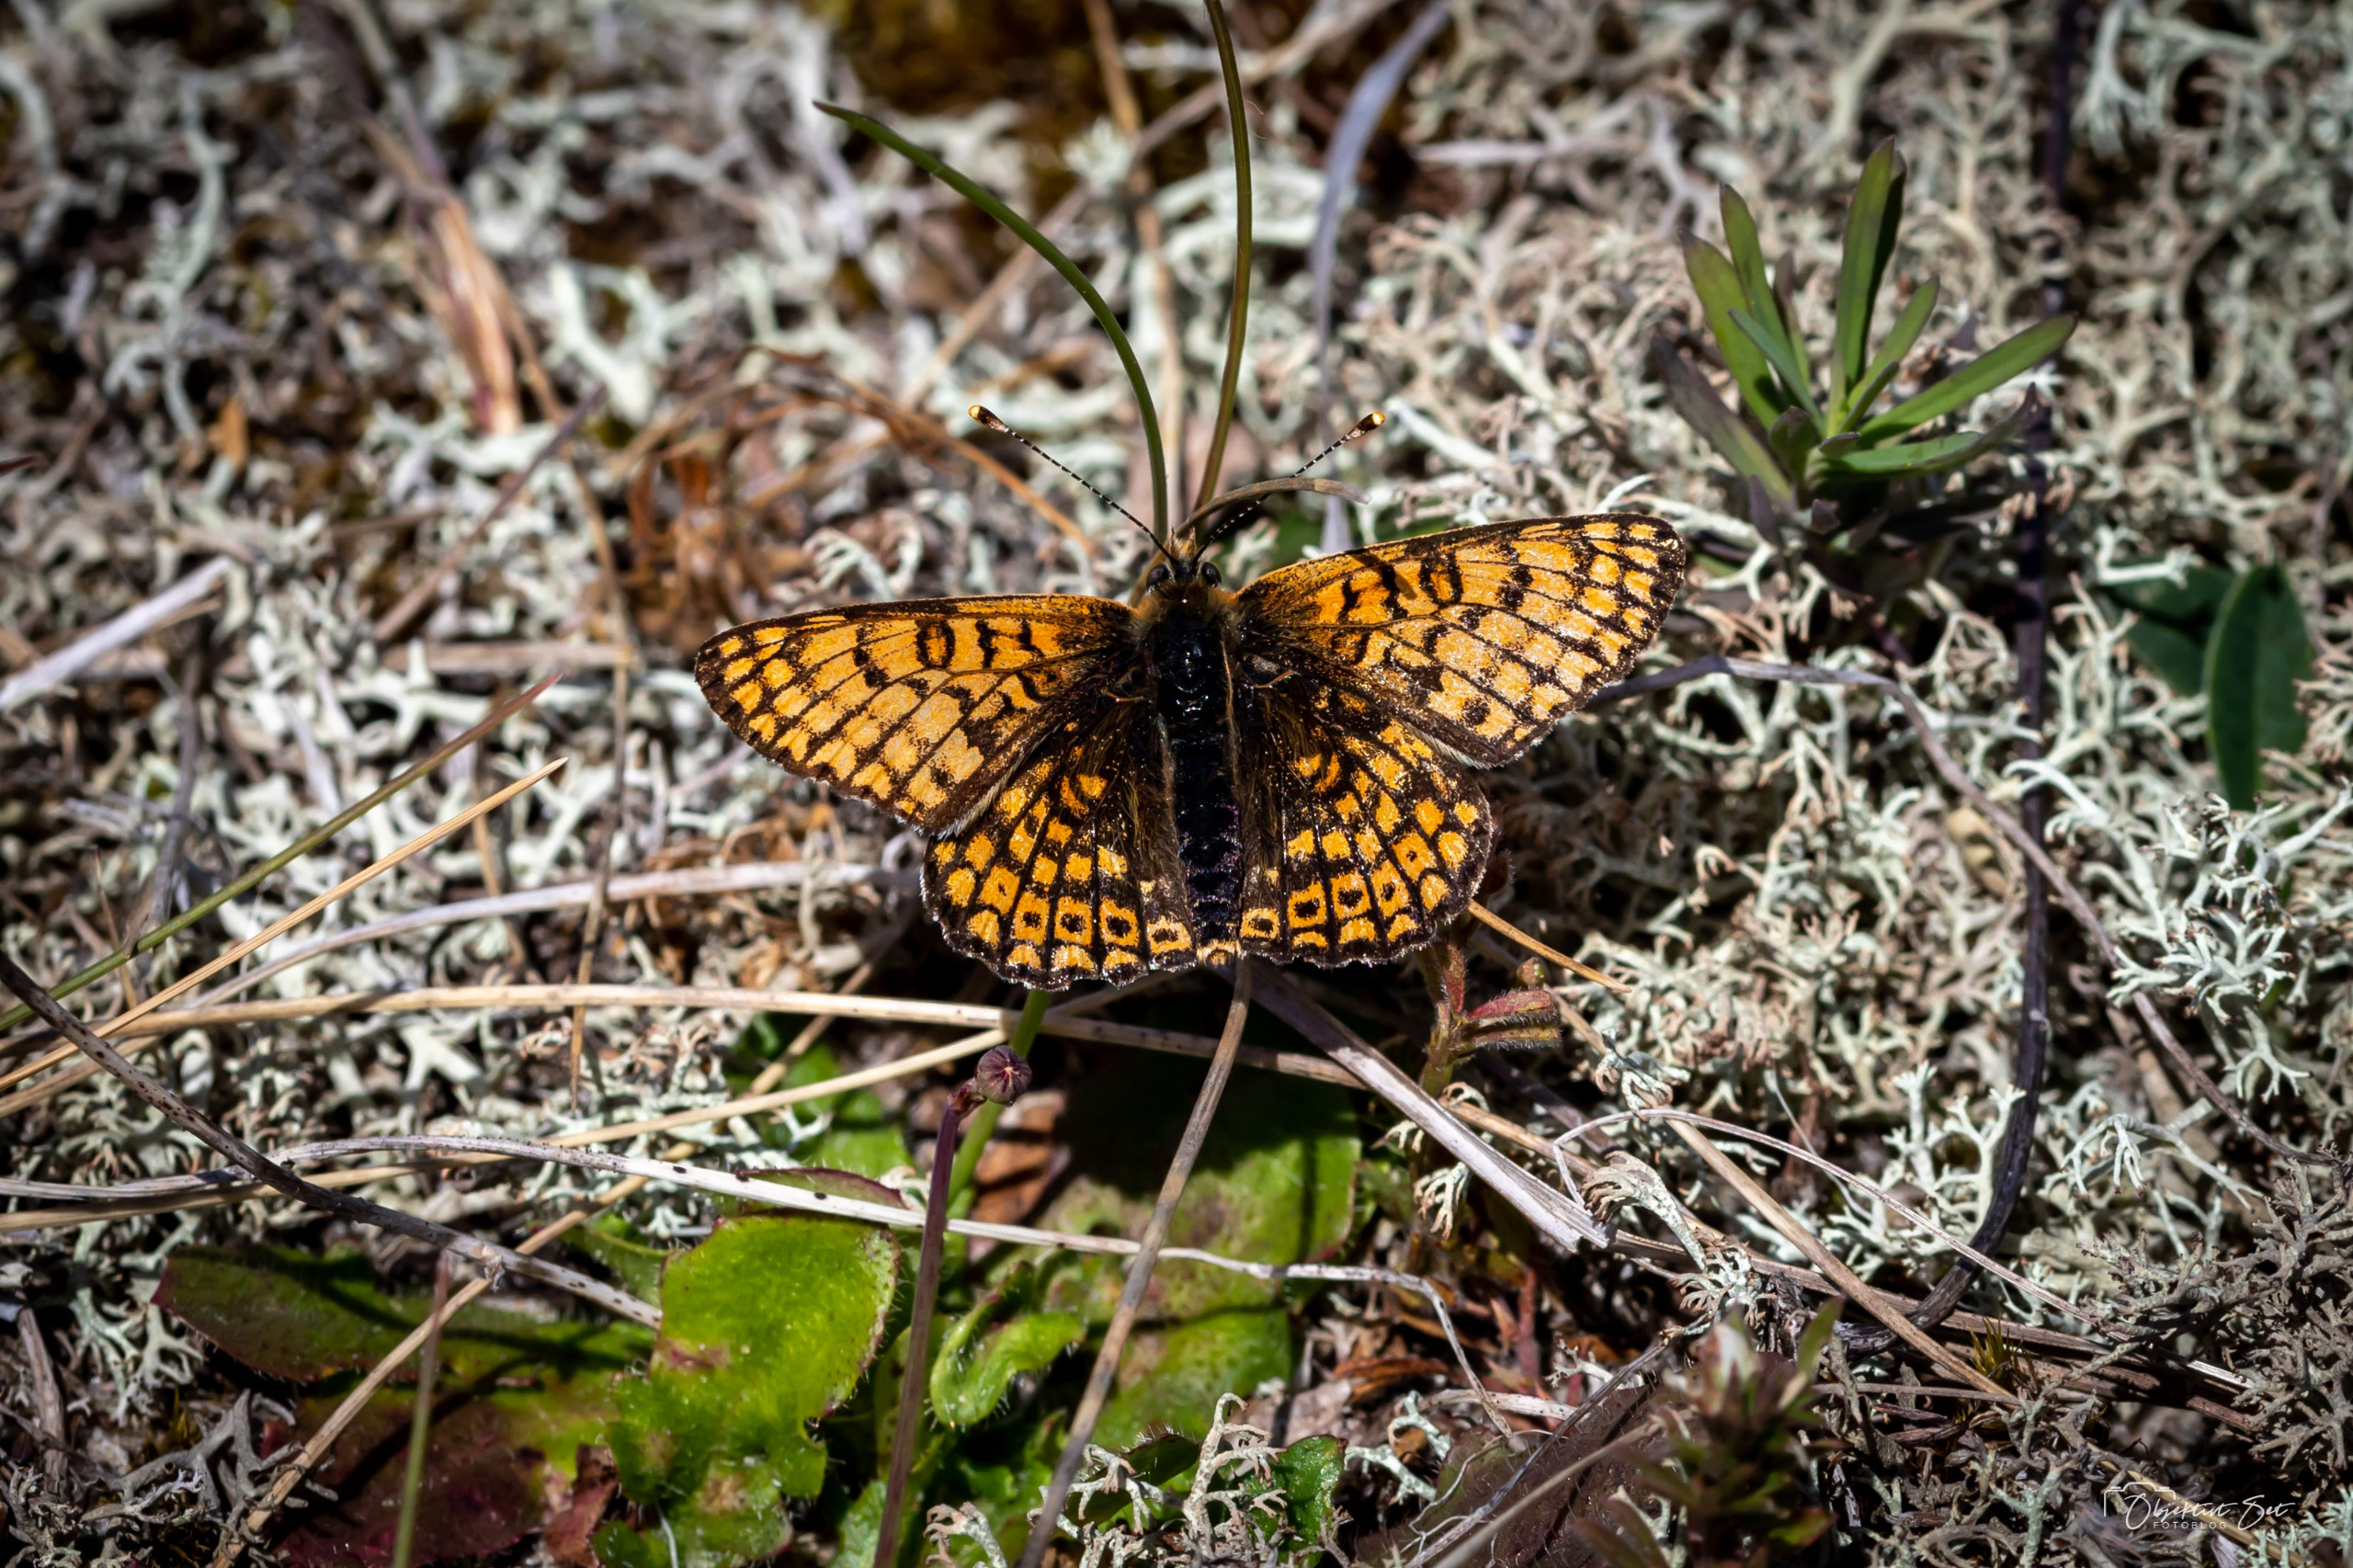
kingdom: Animalia
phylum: Arthropoda
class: Insecta
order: Lepidoptera
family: Nymphalidae
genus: Melitaea
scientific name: Melitaea cinxia
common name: Okkergul pletvinge
